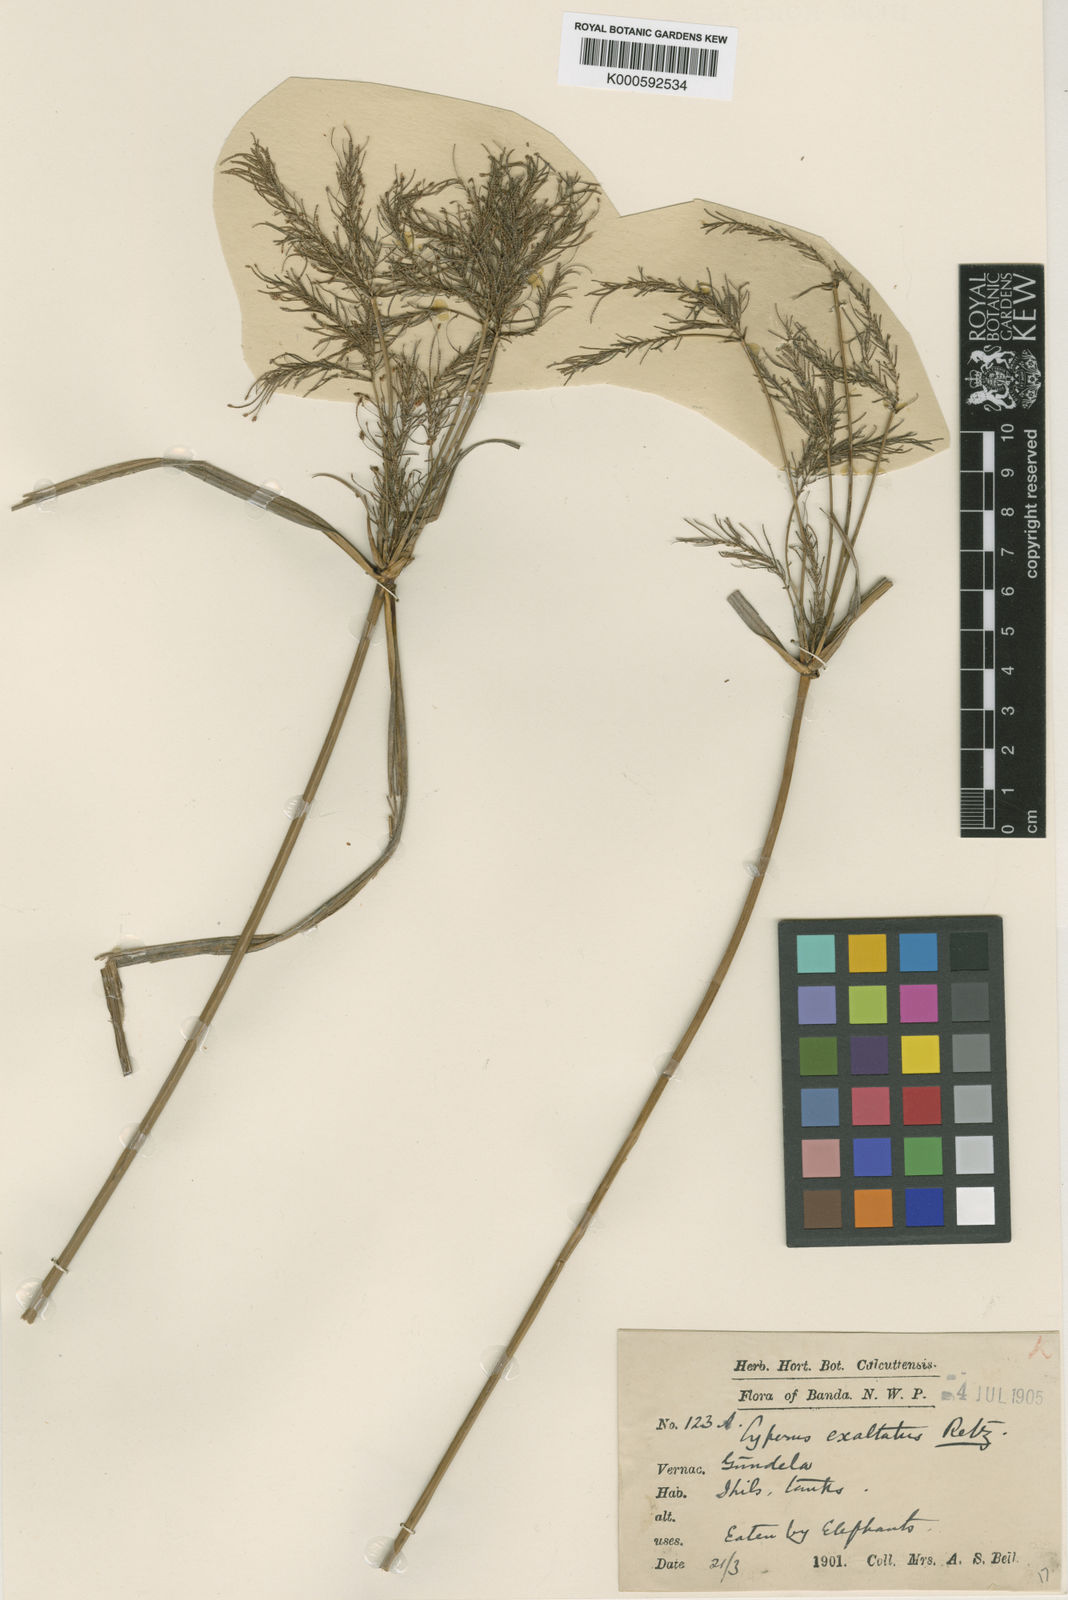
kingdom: Plantae
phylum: Tracheophyta
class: Liliopsida
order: Poales
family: Cyperaceae
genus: Cyperus
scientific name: Cyperus exaltatus
